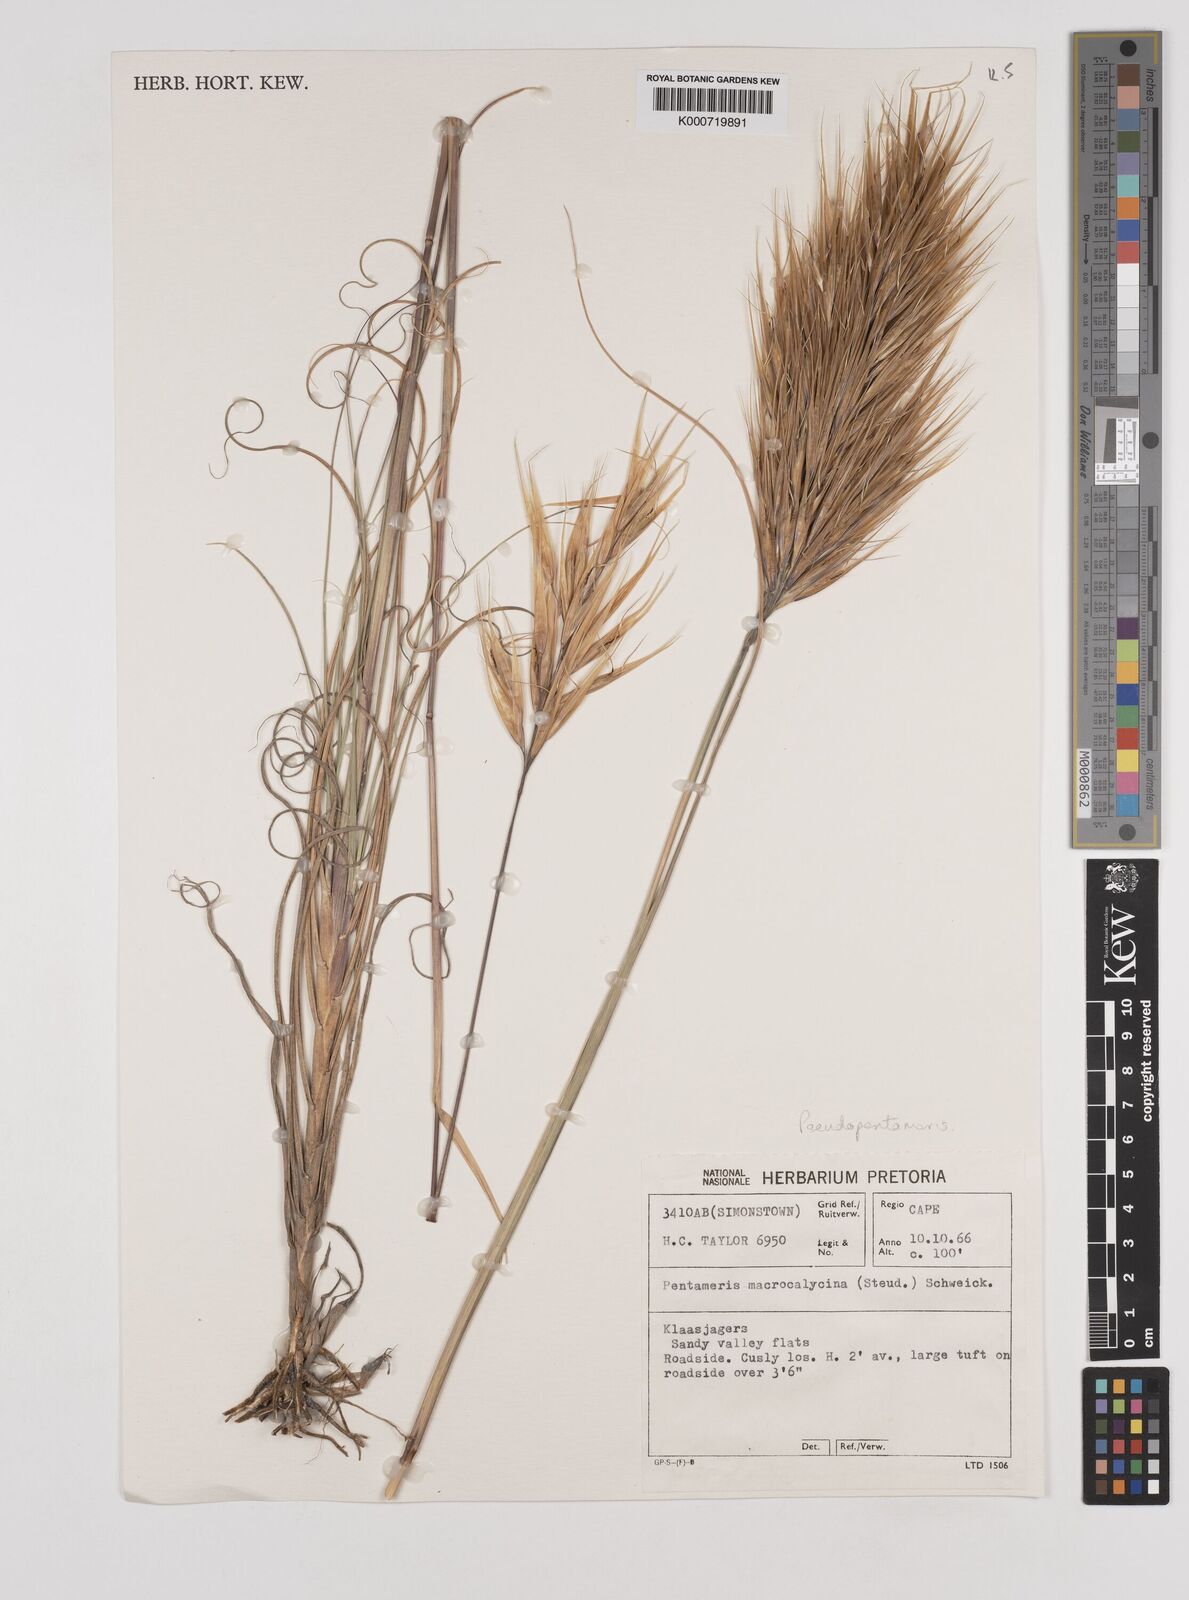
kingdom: Plantae
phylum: Tracheophyta
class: Liliopsida
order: Poales
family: Poaceae
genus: Pentameris
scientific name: Pentameris macrocalycina
